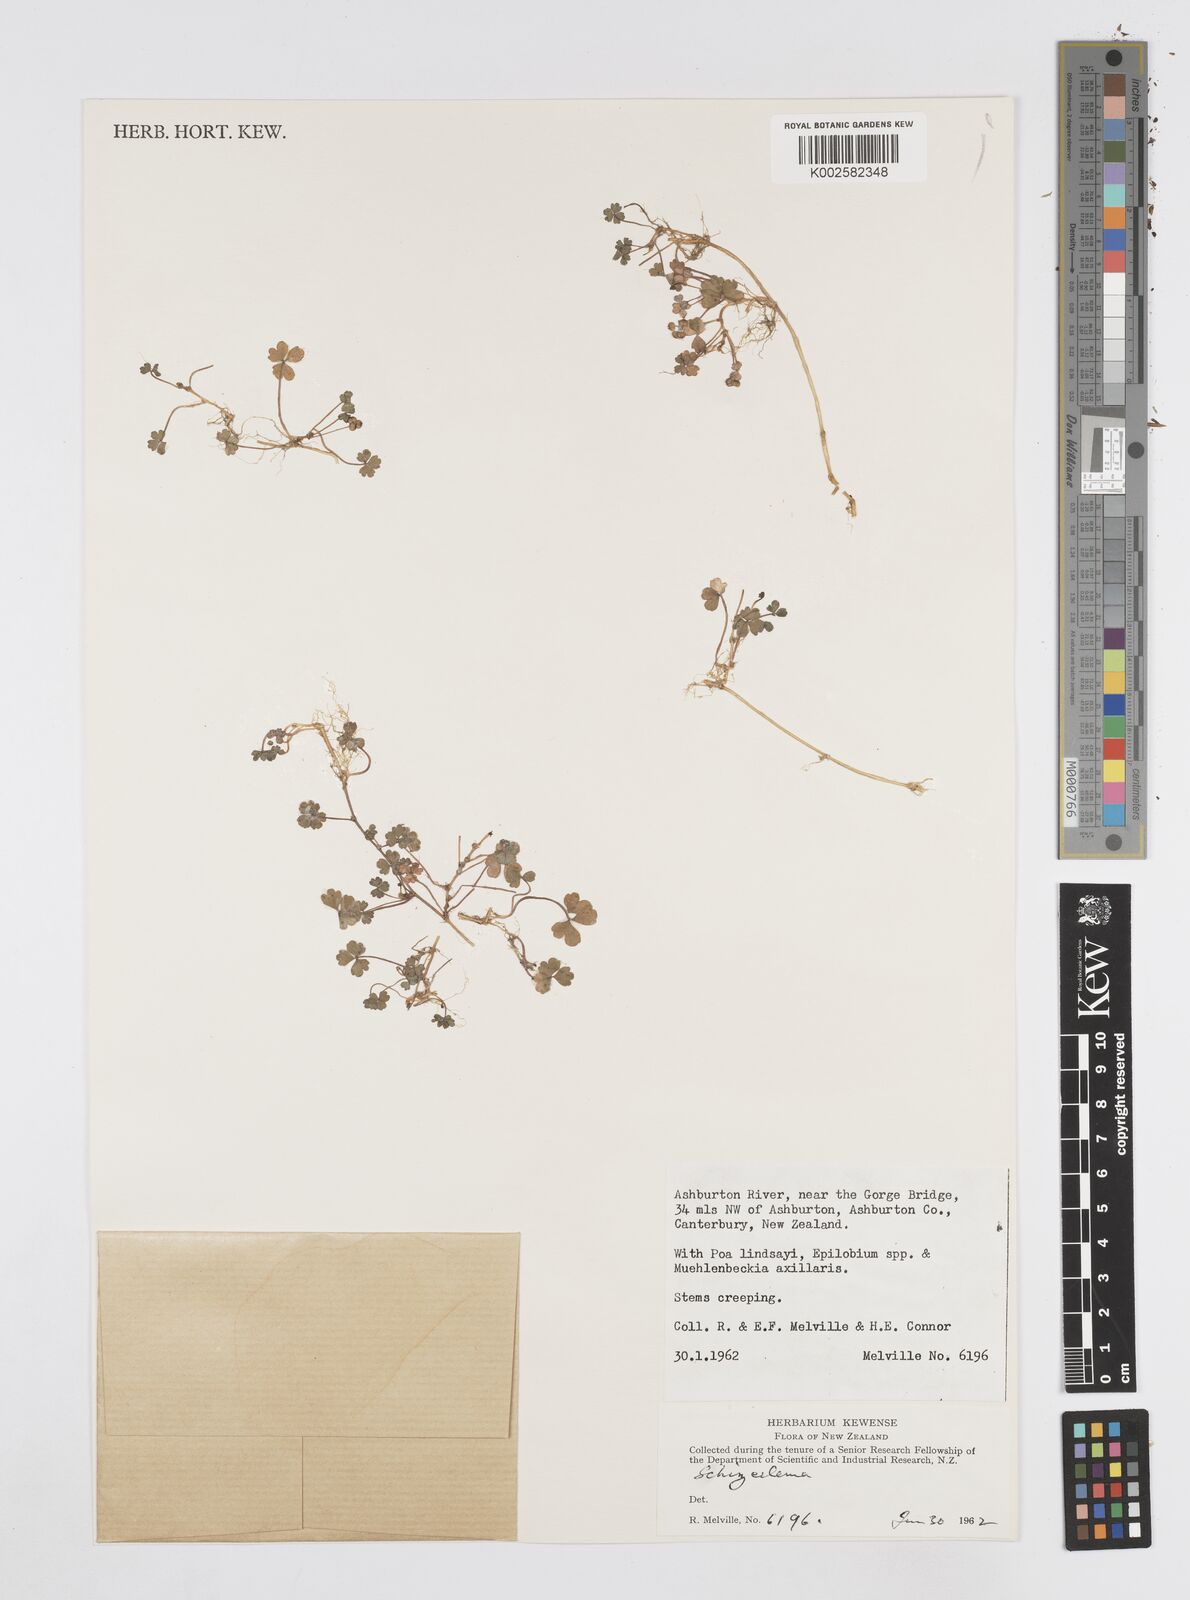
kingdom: Plantae
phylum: Tracheophyta
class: Magnoliopsida
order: Apiales
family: Apiaceae
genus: Azorella
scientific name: Azorella nitens
